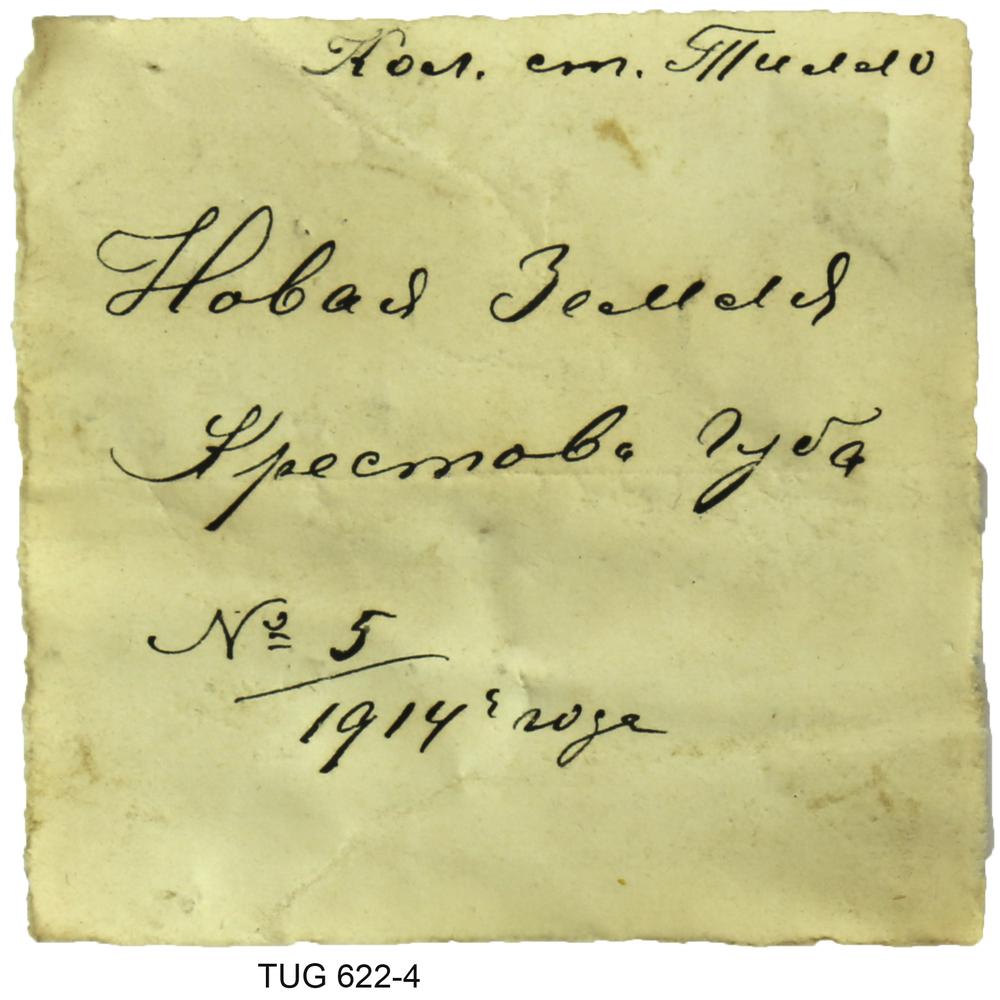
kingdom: Animalia
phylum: Mollusca
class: Cephalopoda
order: Belemnitida
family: Belemnitellidae
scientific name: Belemnitellidae
